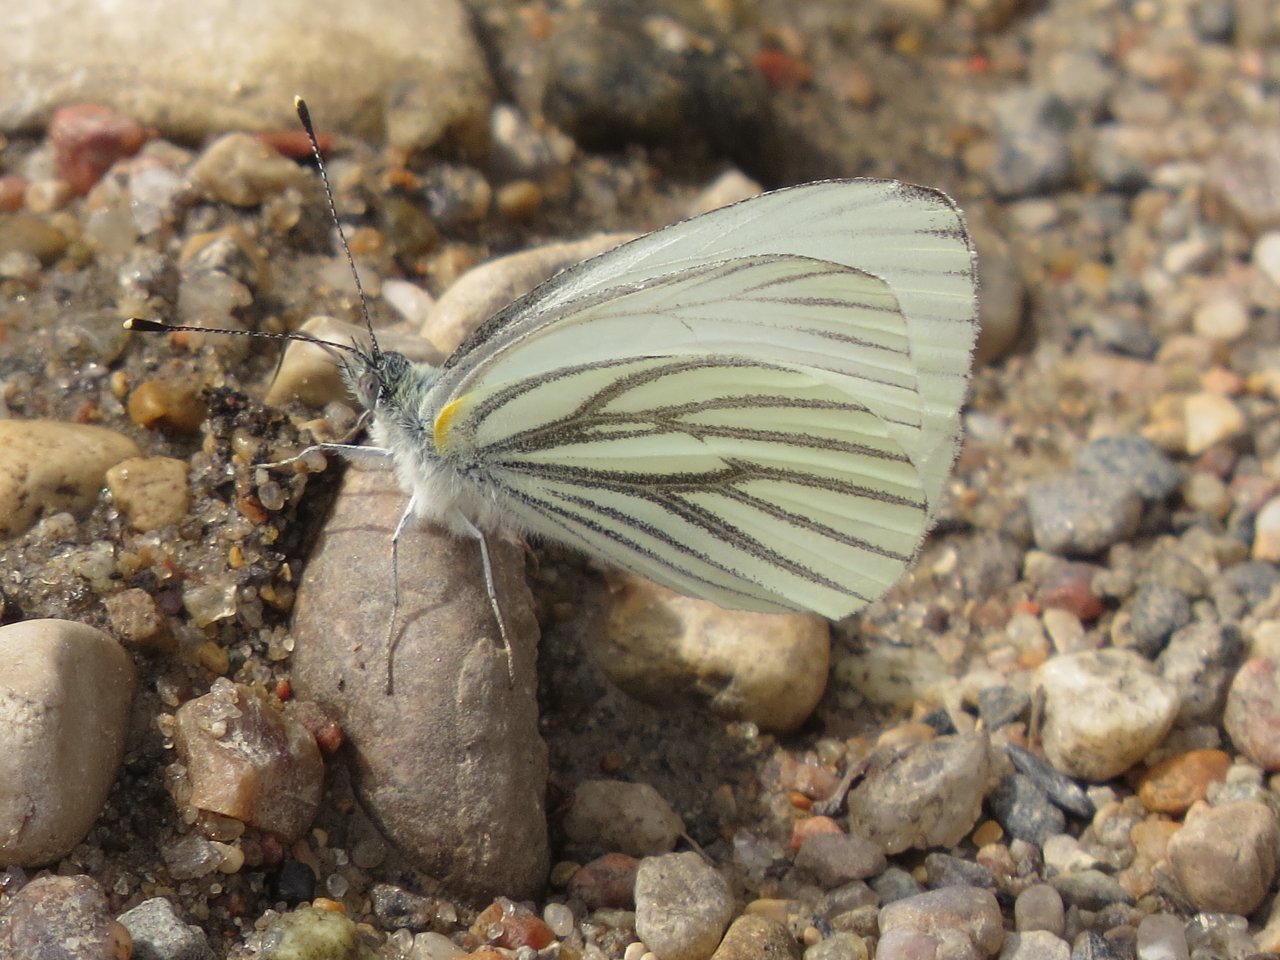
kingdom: Animalia
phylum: Arthropoda
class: Insecta
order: Lepidoptera
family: Pieridae
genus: Pieris
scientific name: Pieris oleracea
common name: Mustard White
